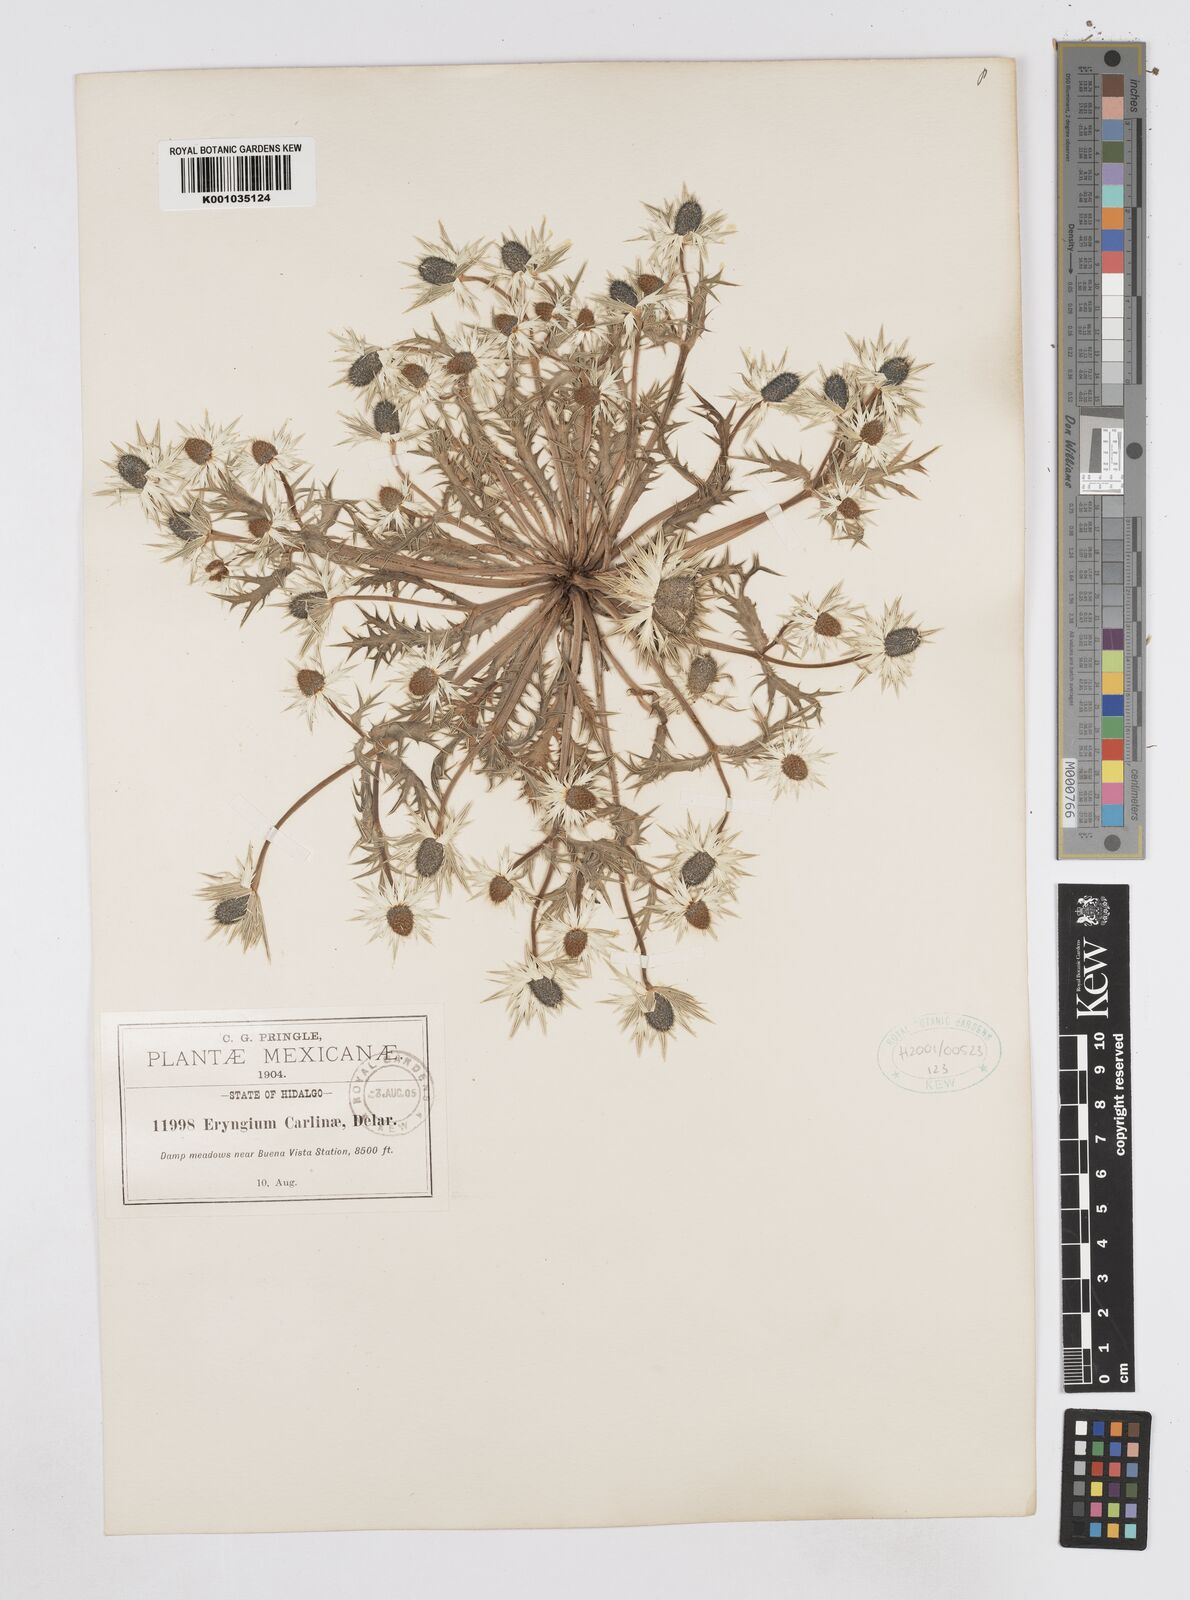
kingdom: Plantae
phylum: Tracheophyta
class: Magnoliopsida
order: Apiales
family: Apiaceae
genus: Eryngium
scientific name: Eryngium carlinae
